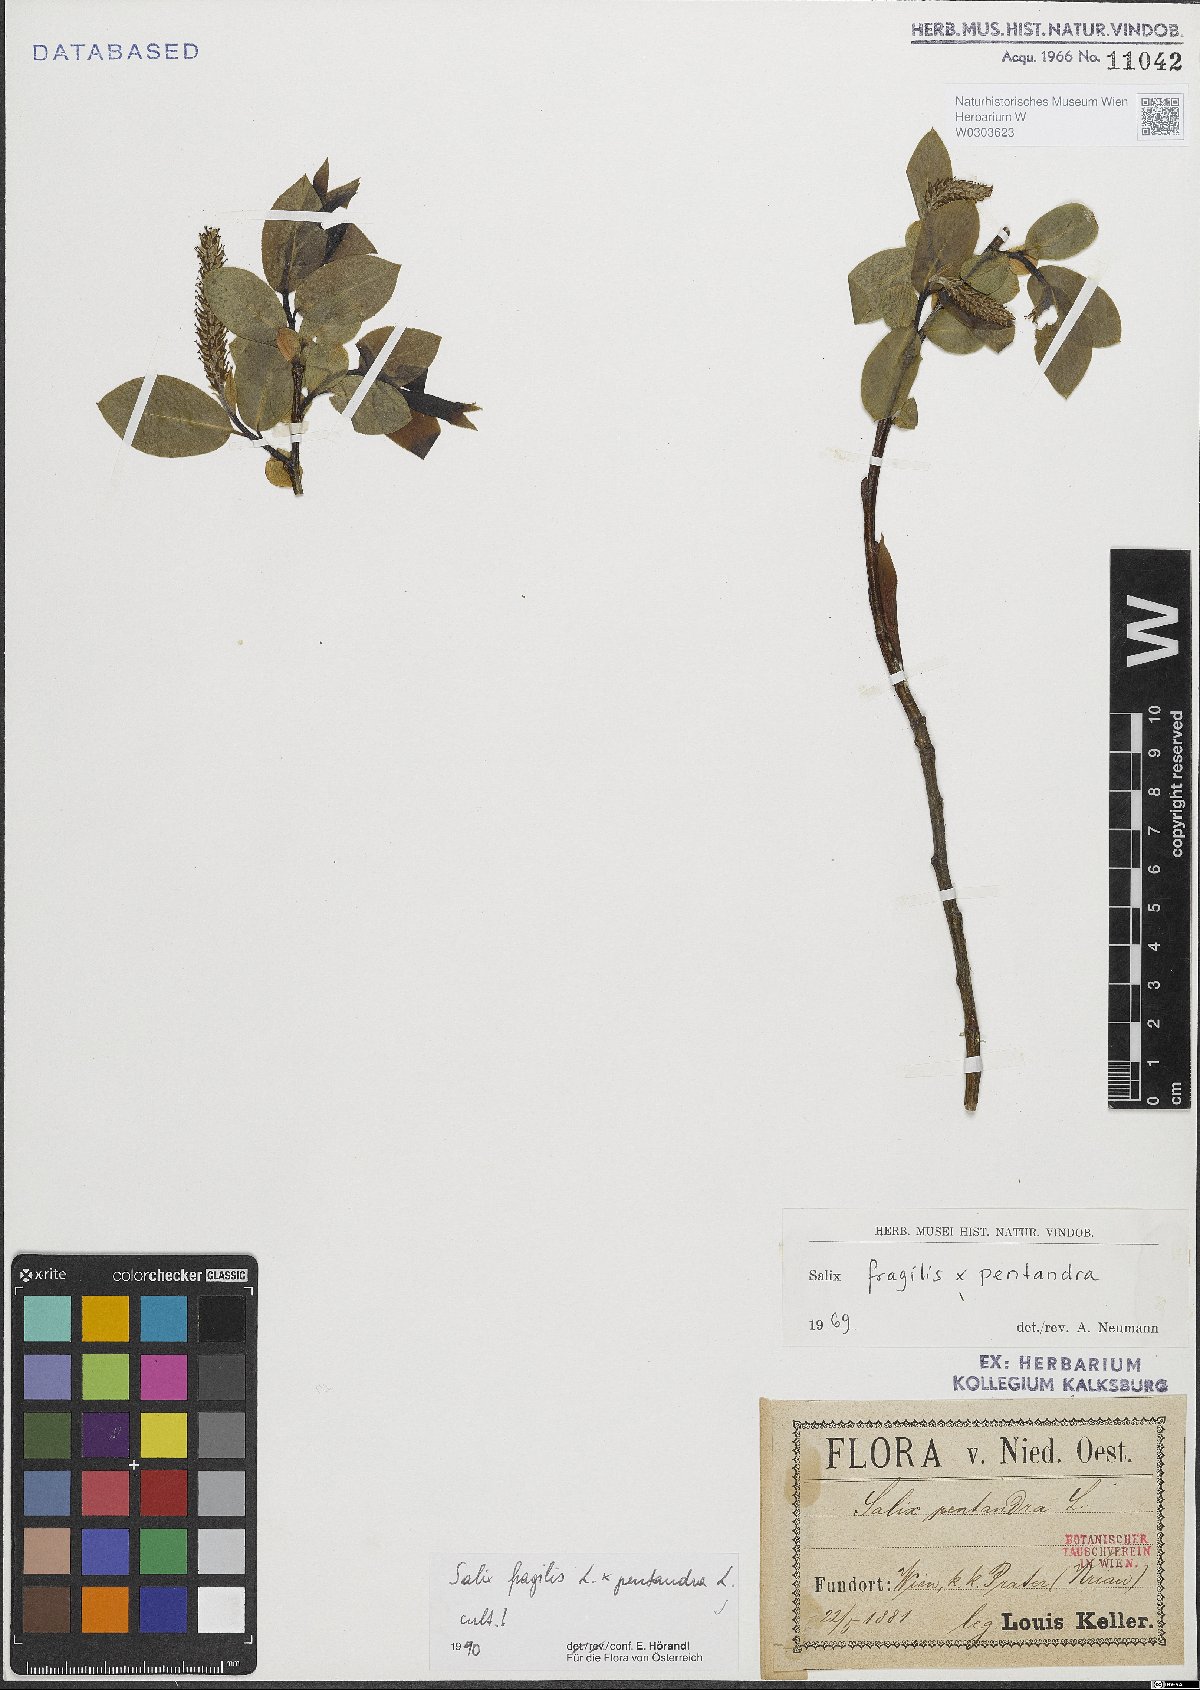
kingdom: Plantae
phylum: Tracheophyta
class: Magnoliopsida
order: Malpighiales
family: Salicaceae
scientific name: Salicaceae
